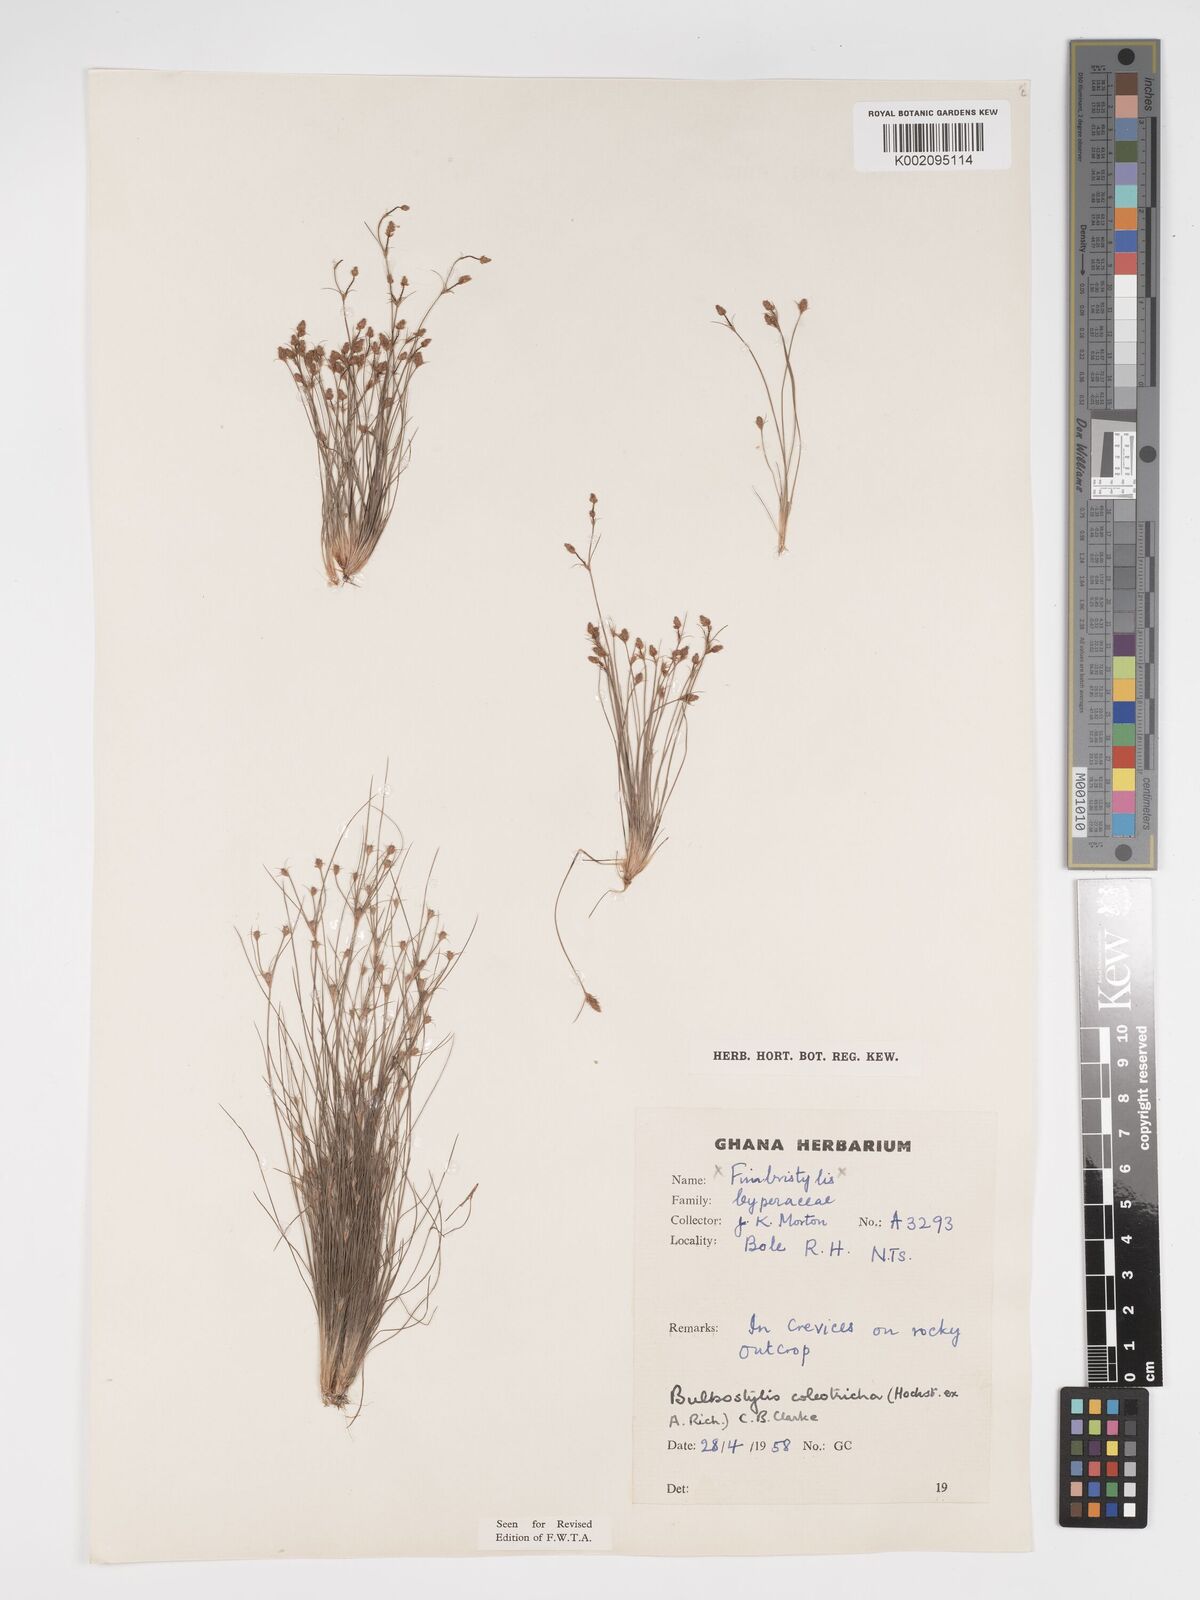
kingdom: Plantae
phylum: Tracheophyta
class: Liliopsida
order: Poales
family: Cyperaceae
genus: Bulbostylis
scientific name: Bulbostylis coleotricha
